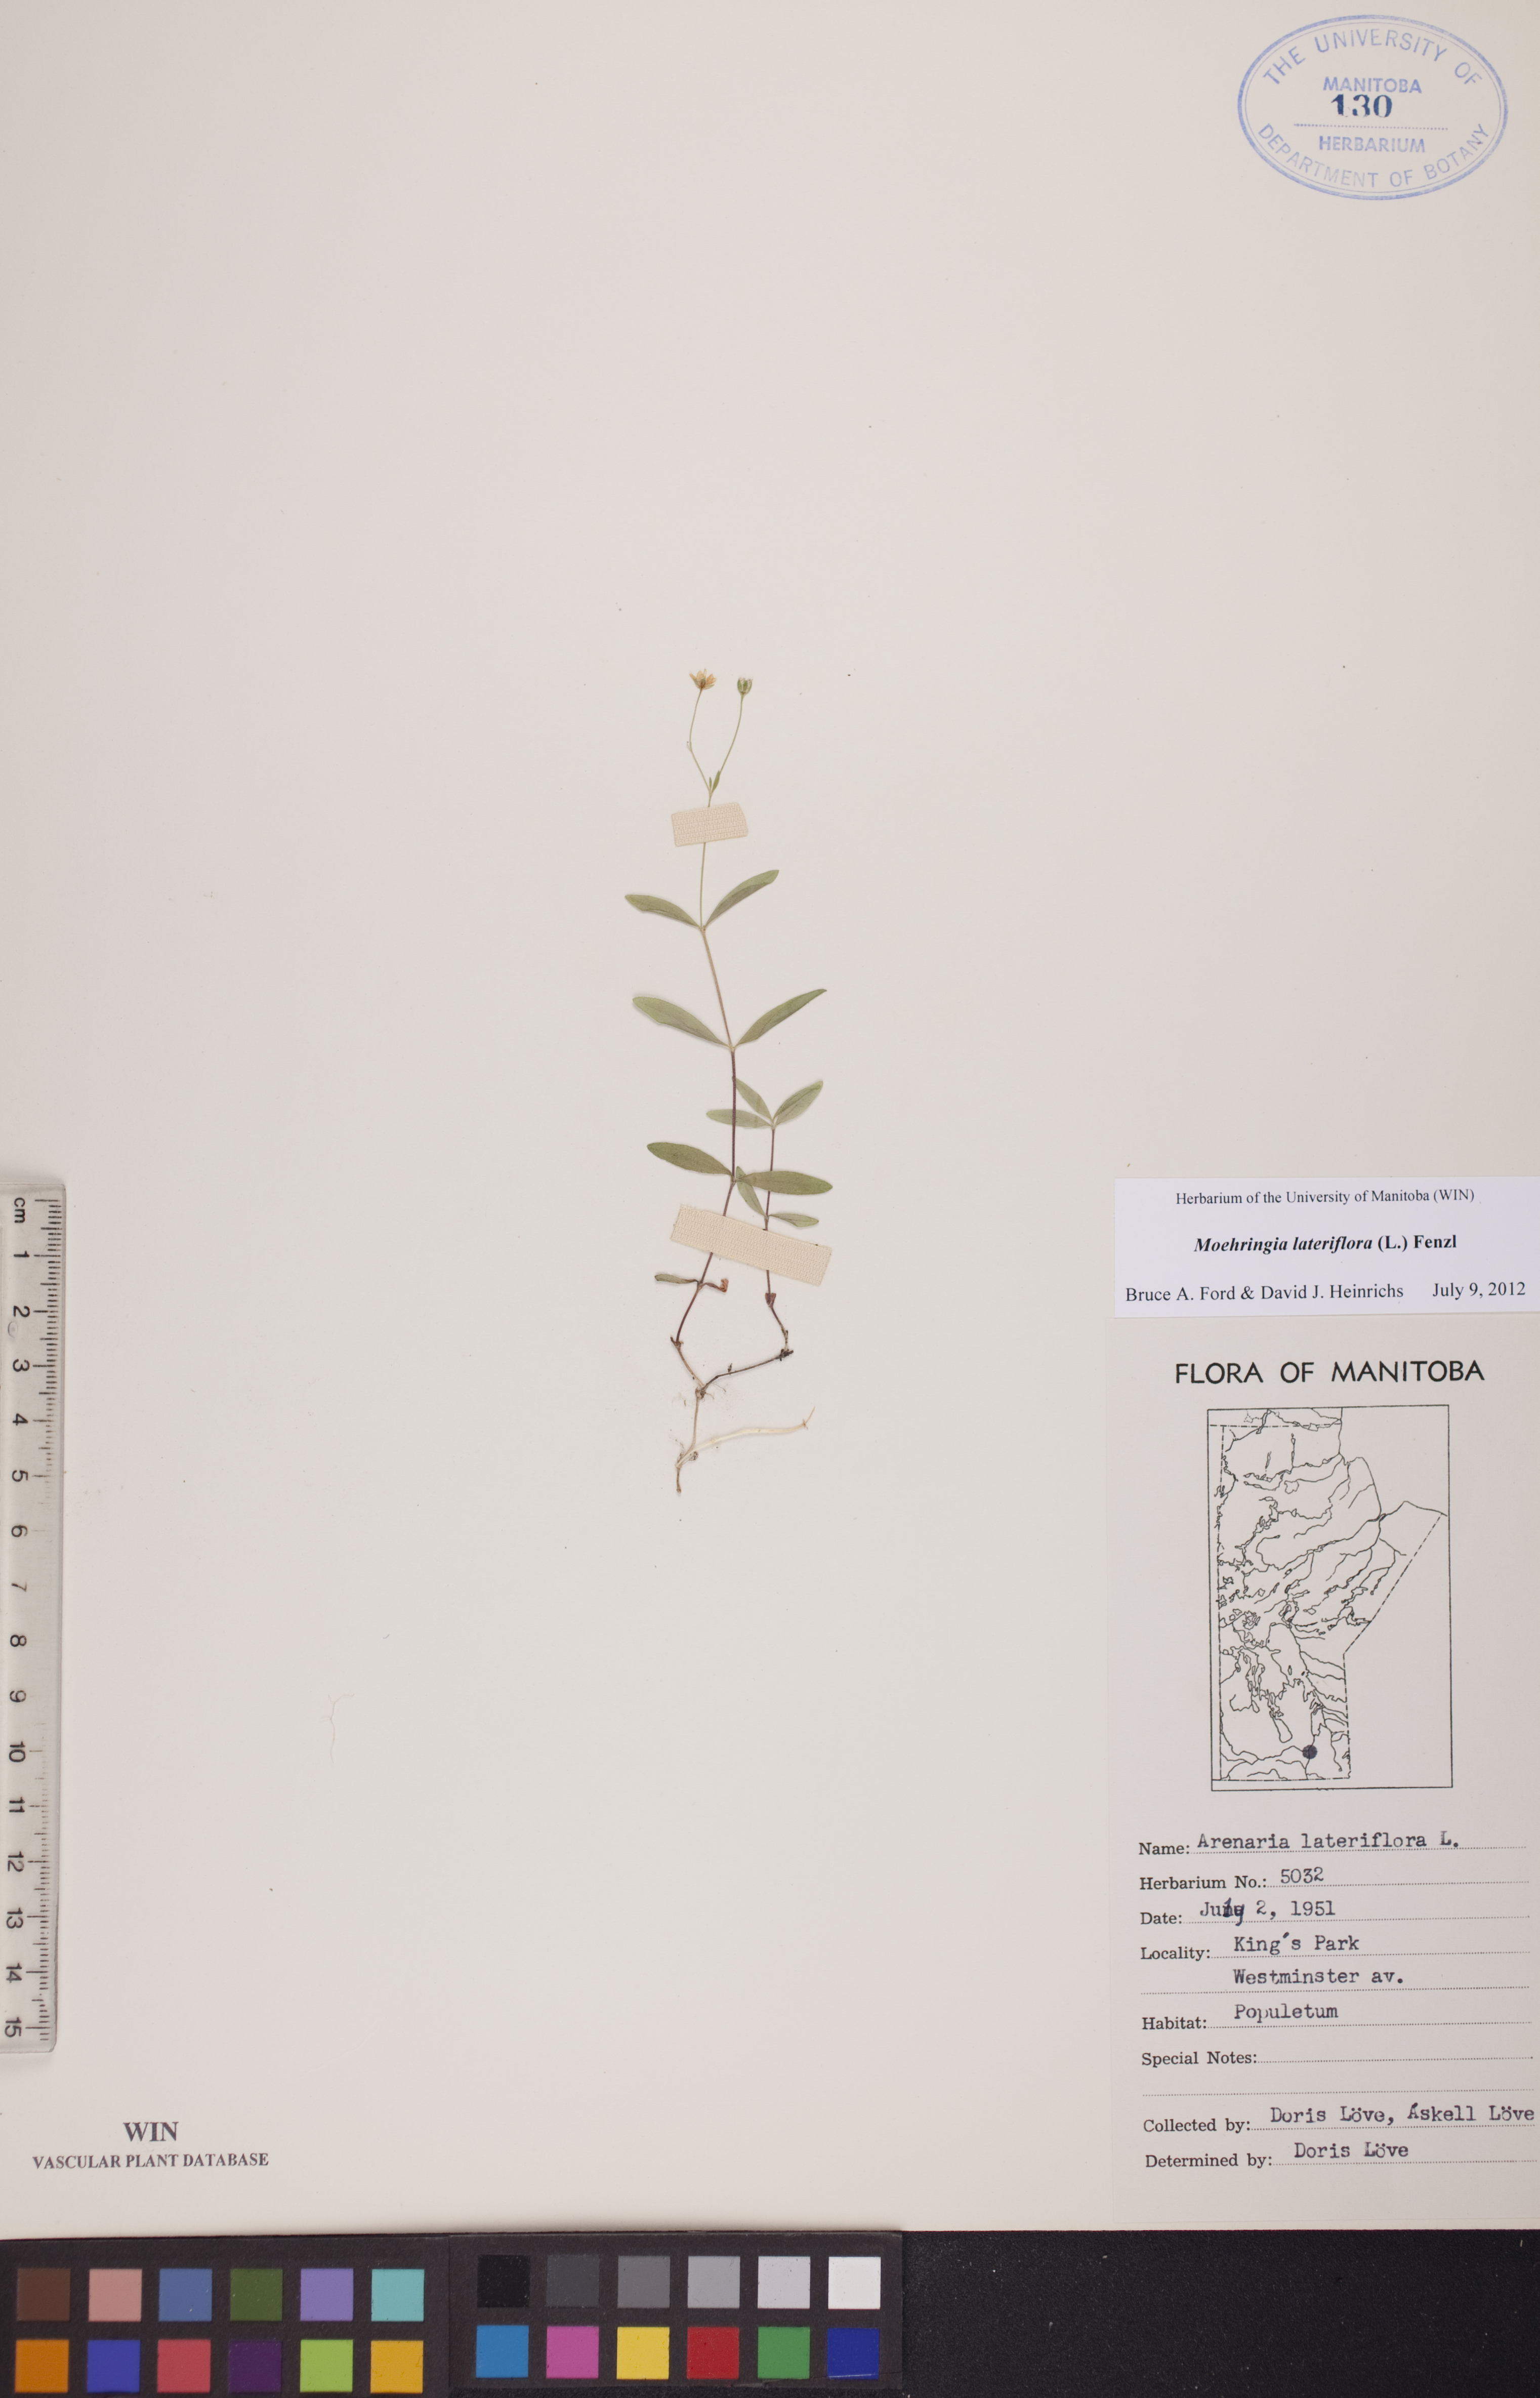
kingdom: Plantae
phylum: Tracheophyta
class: Magnoliopsida
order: Caryophyllales
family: Caryophyllaceae
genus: Moehringia
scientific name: Moehringia lateriflora
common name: Blunt-leaved sandwort
